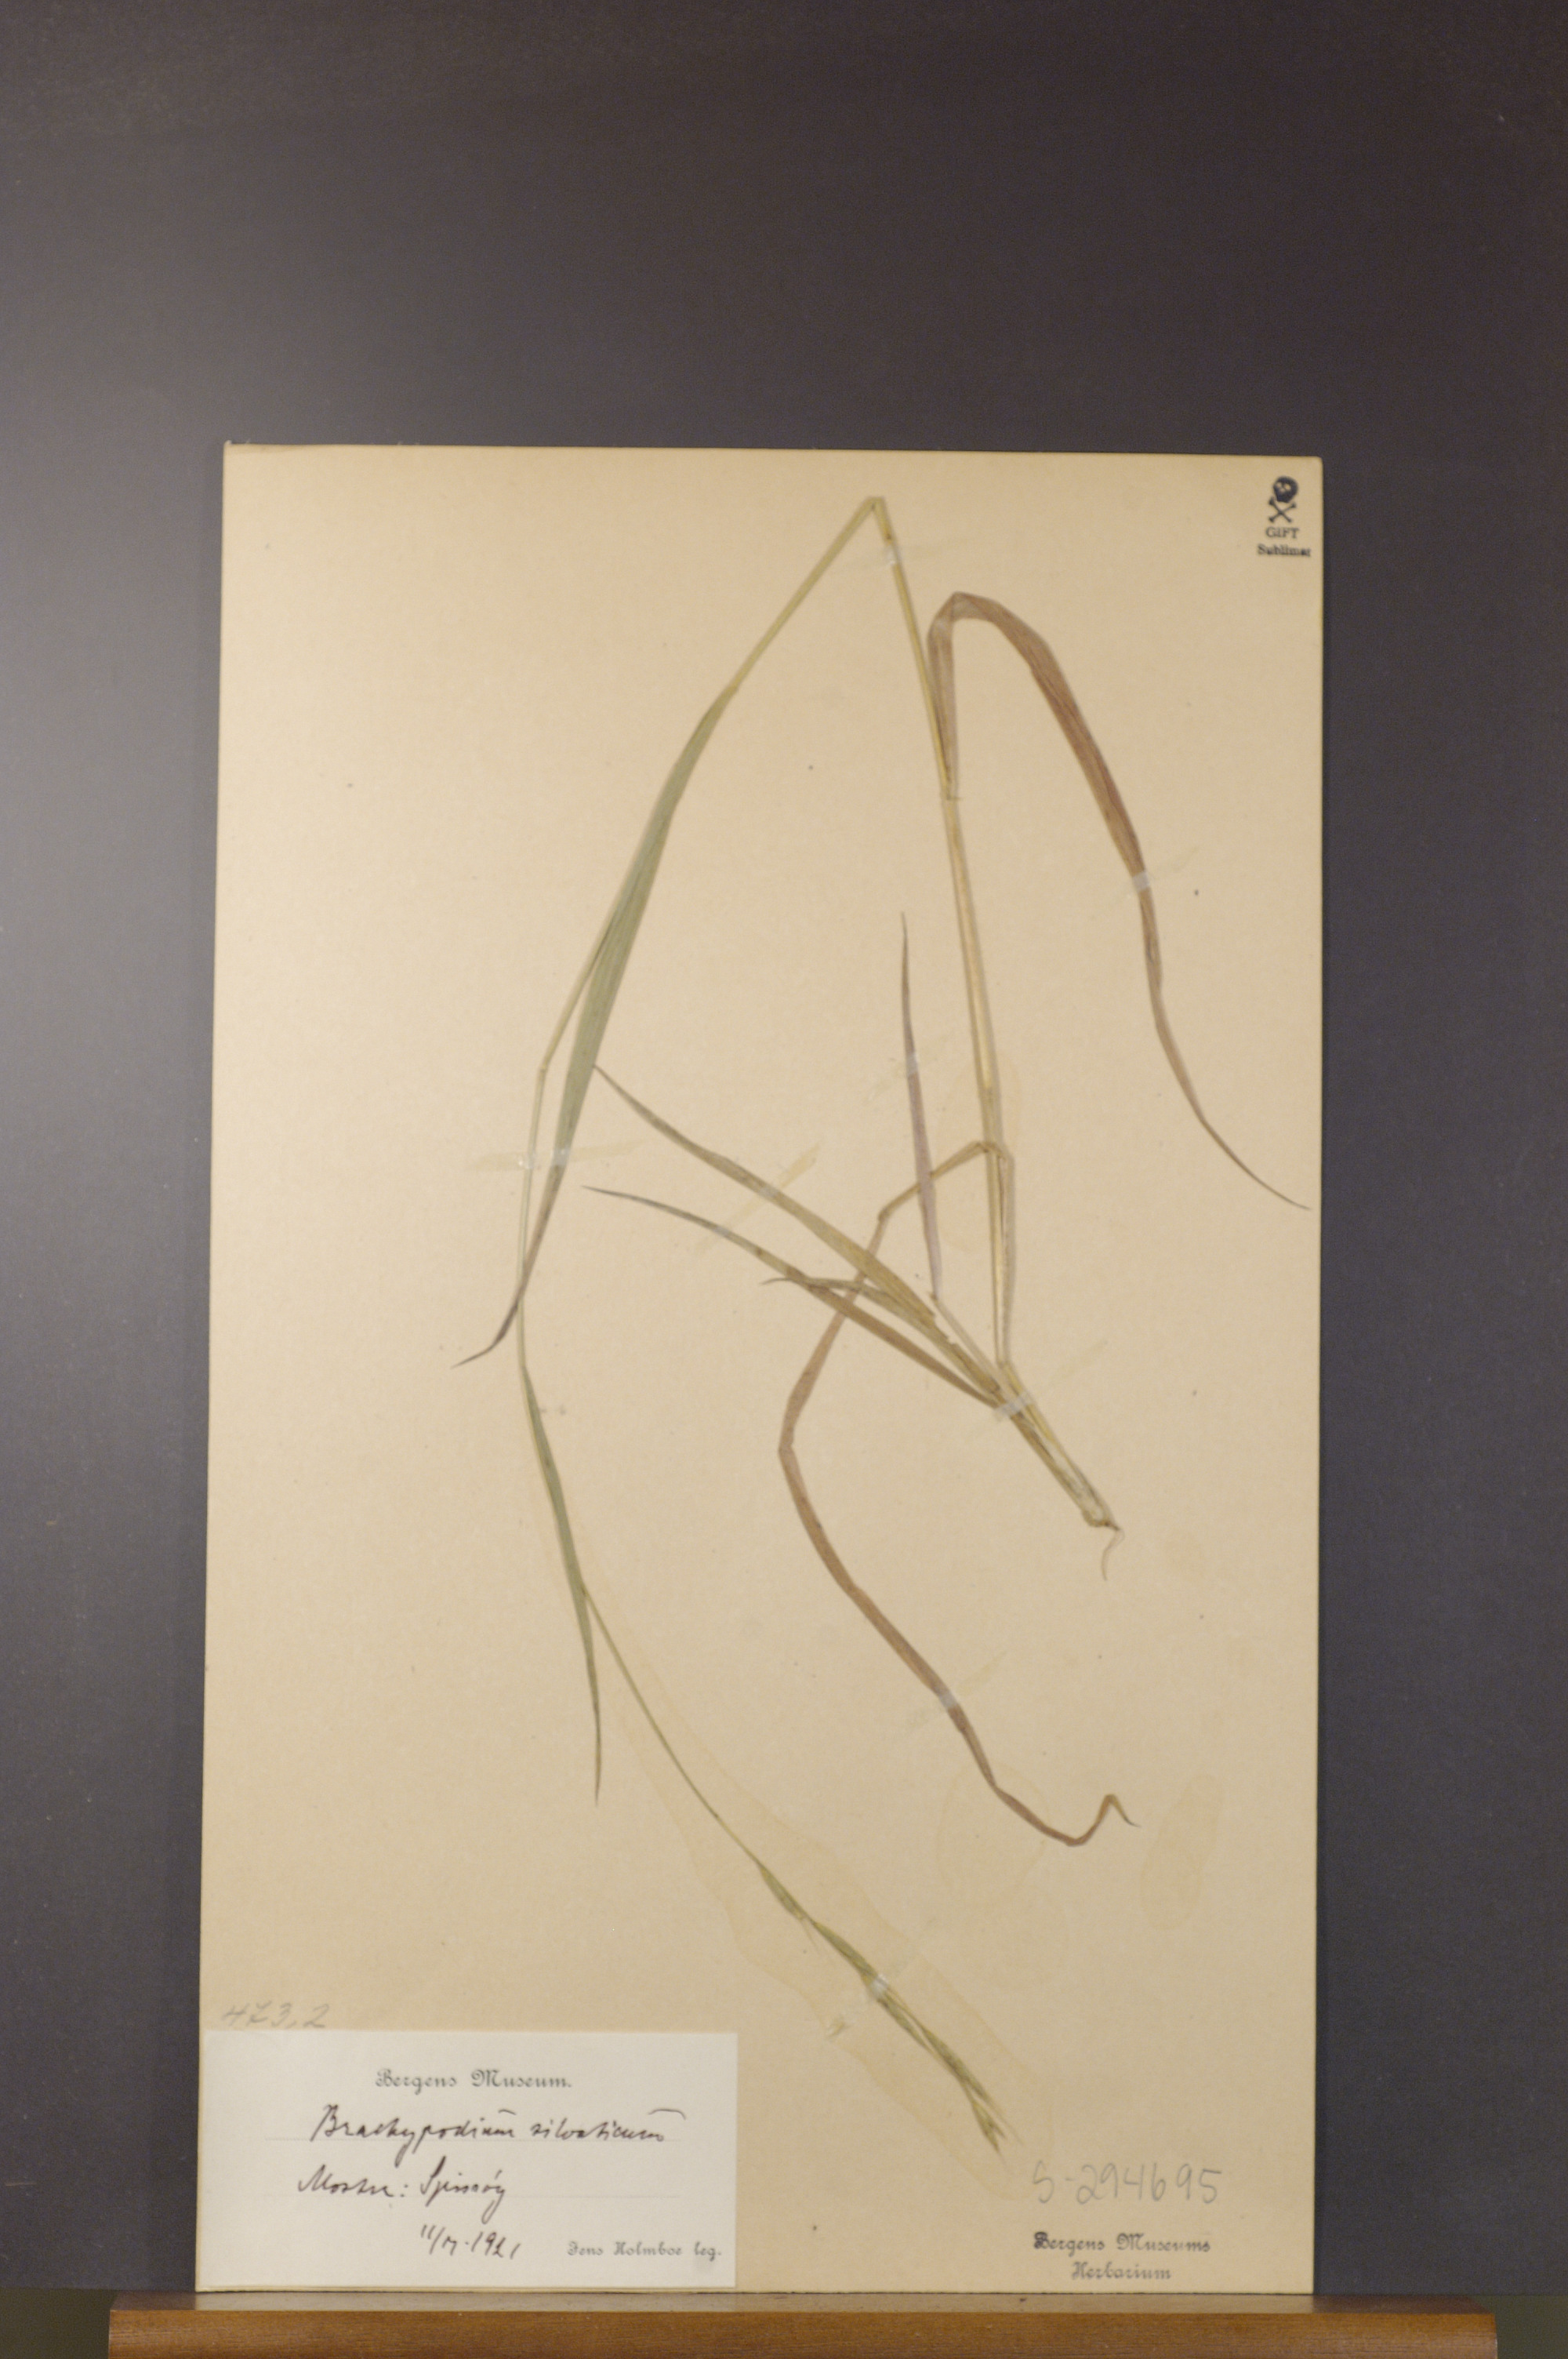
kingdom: Plantae
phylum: Tracheophyta
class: Liliopsida
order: Poales
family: Poaceae
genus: Brachypodium
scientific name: Brachypodium sylvaticum
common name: False-brome
